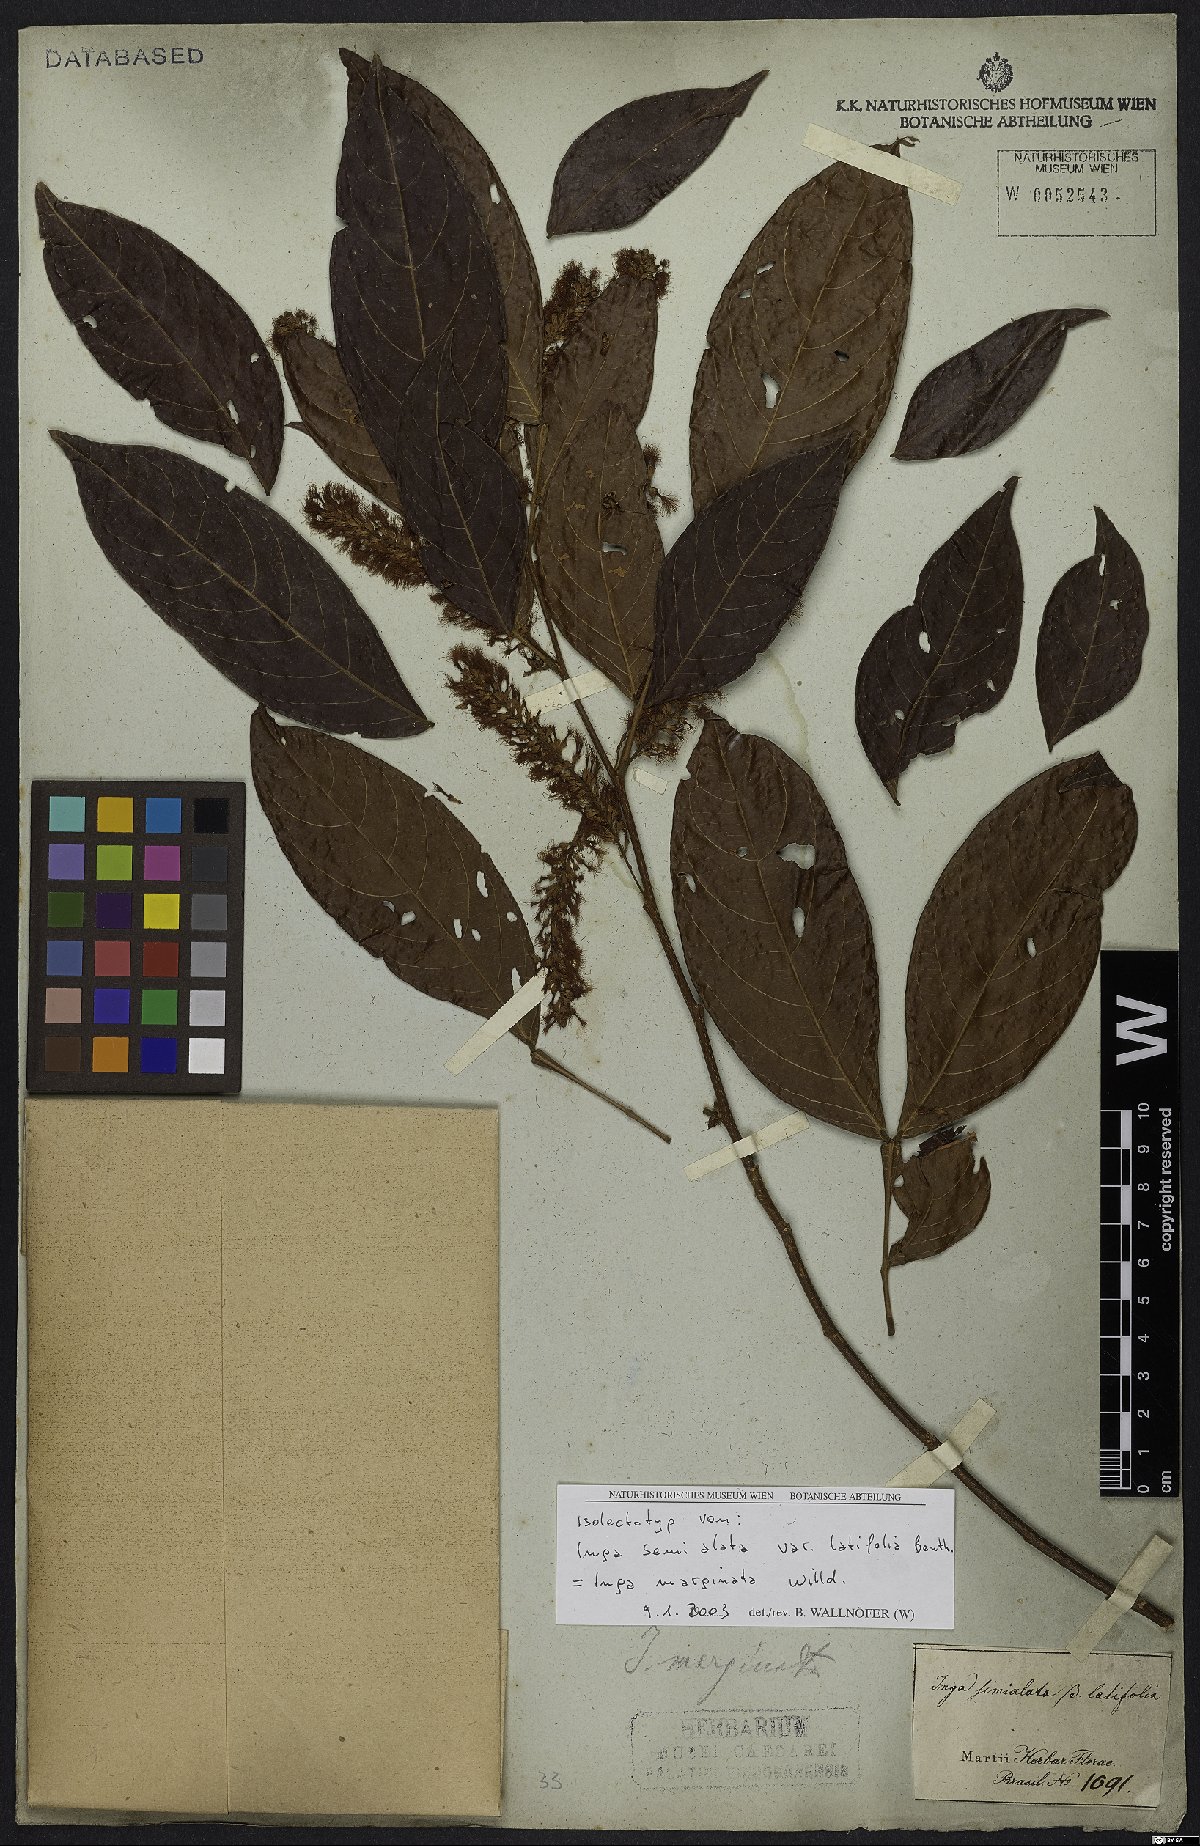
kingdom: Plantae
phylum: Tracheophyta
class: Magnoliopsida
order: Fabales
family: Fabaceae
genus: Inga
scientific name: Inga marginata
